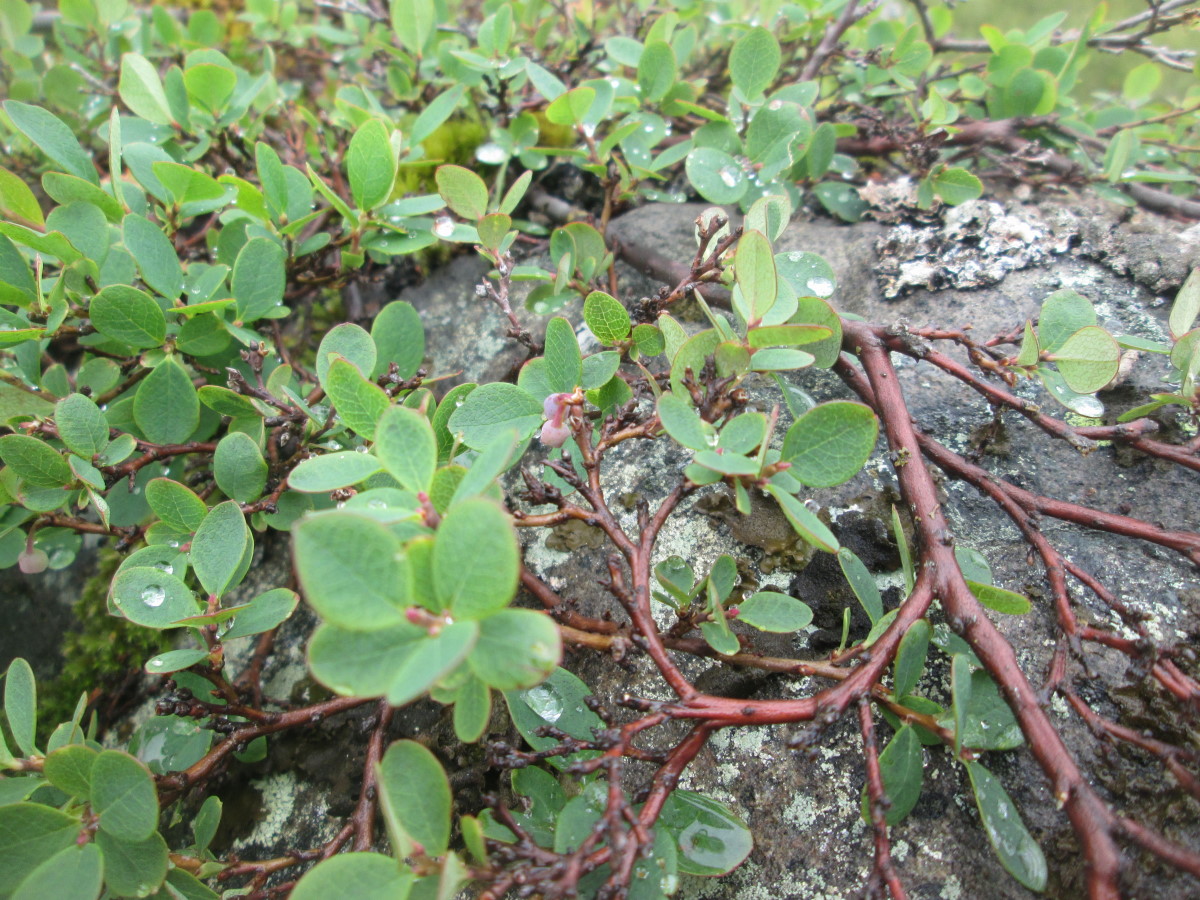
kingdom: Plantae
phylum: Tracheophyta
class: Magnoliopsida
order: Ericales
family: Ericaceae
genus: Vaccinium
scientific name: Vaccinium uliginosum
